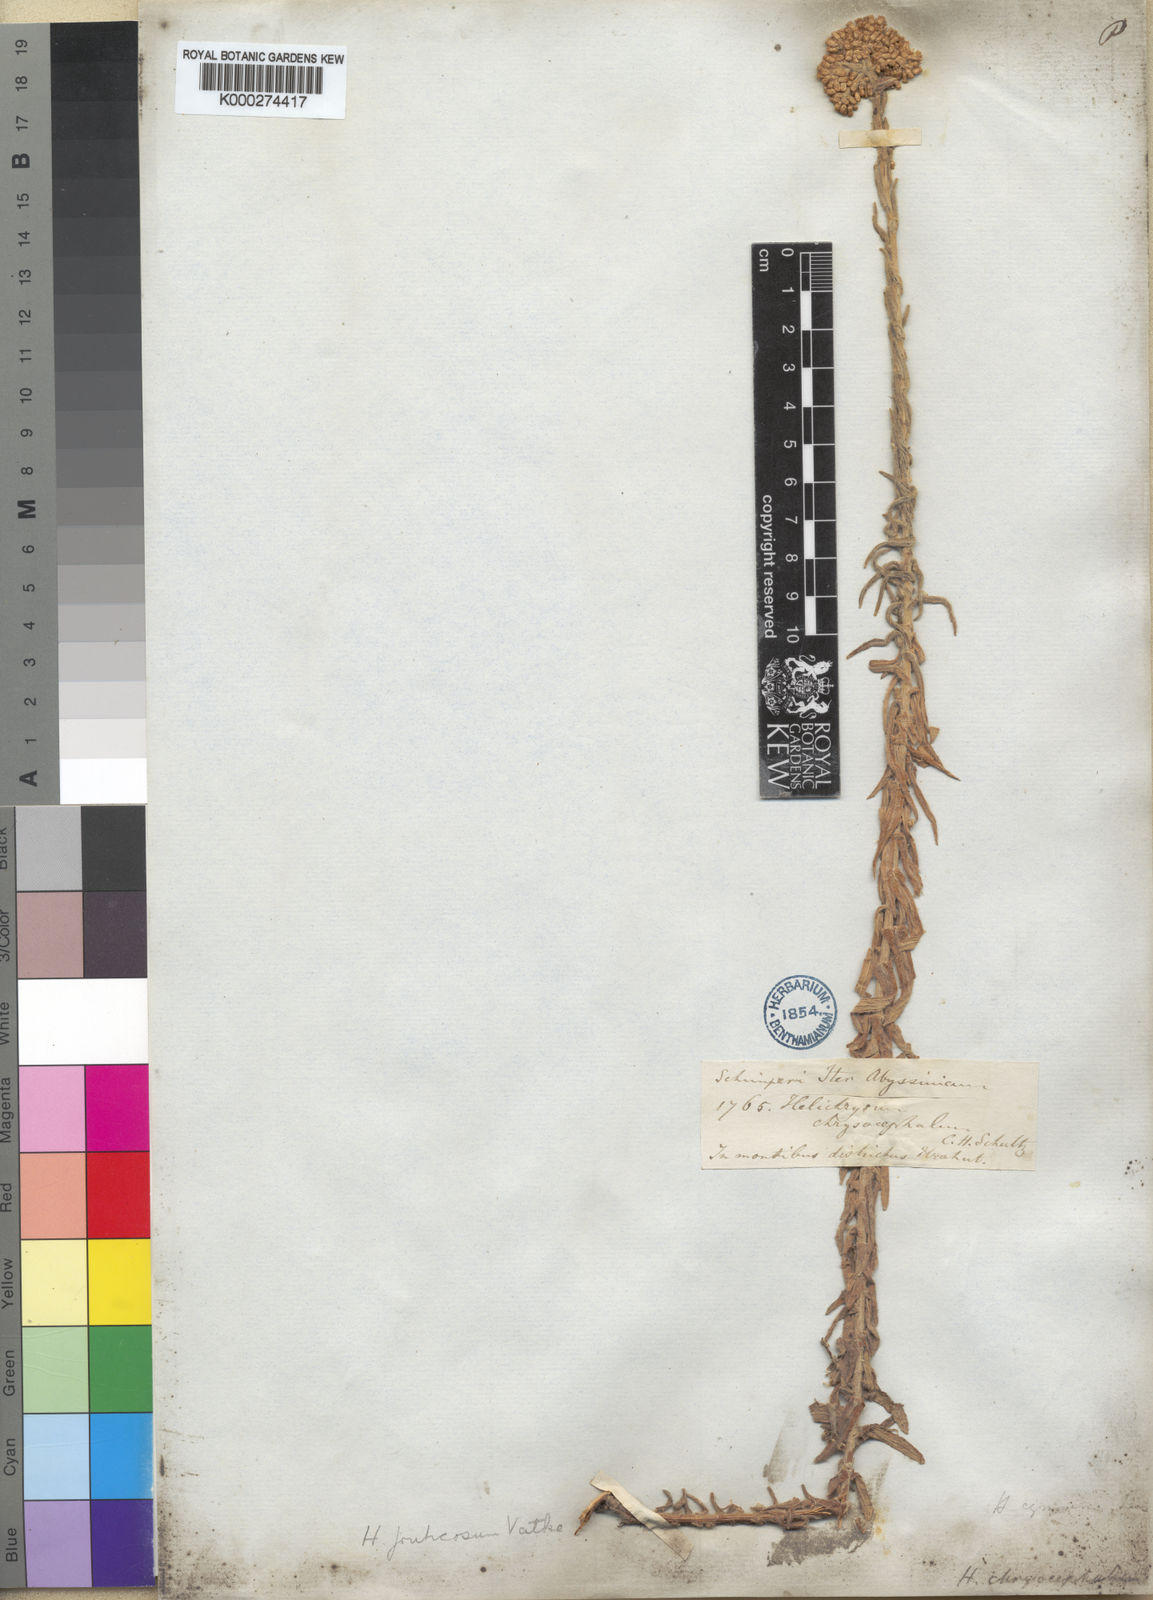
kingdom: Plantae
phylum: Tracheophyta
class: Magnoliopsida
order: Asterales
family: Asteraceae
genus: Helichrysum
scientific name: Helichrysum forskahlii
